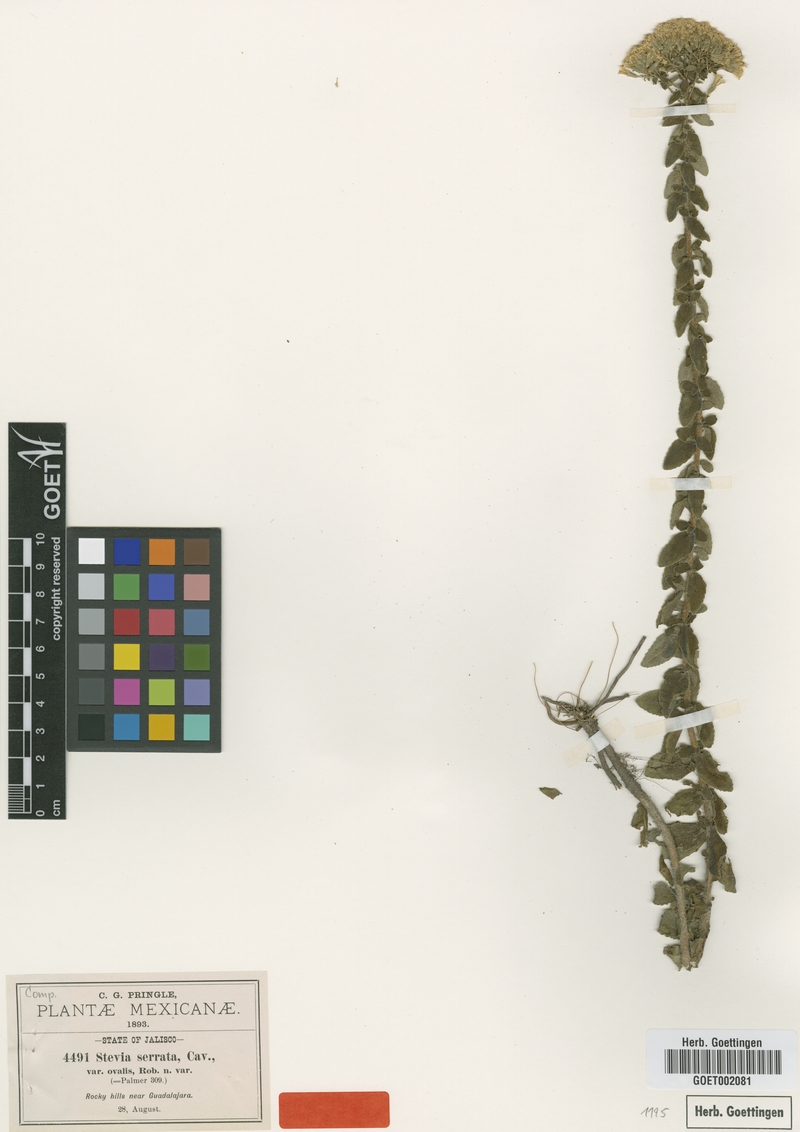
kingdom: Plantae
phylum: Tracheophyta
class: Magnoliopsida
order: Asterales
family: Asteraceae
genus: Stevia
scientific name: Stevia ovalis
